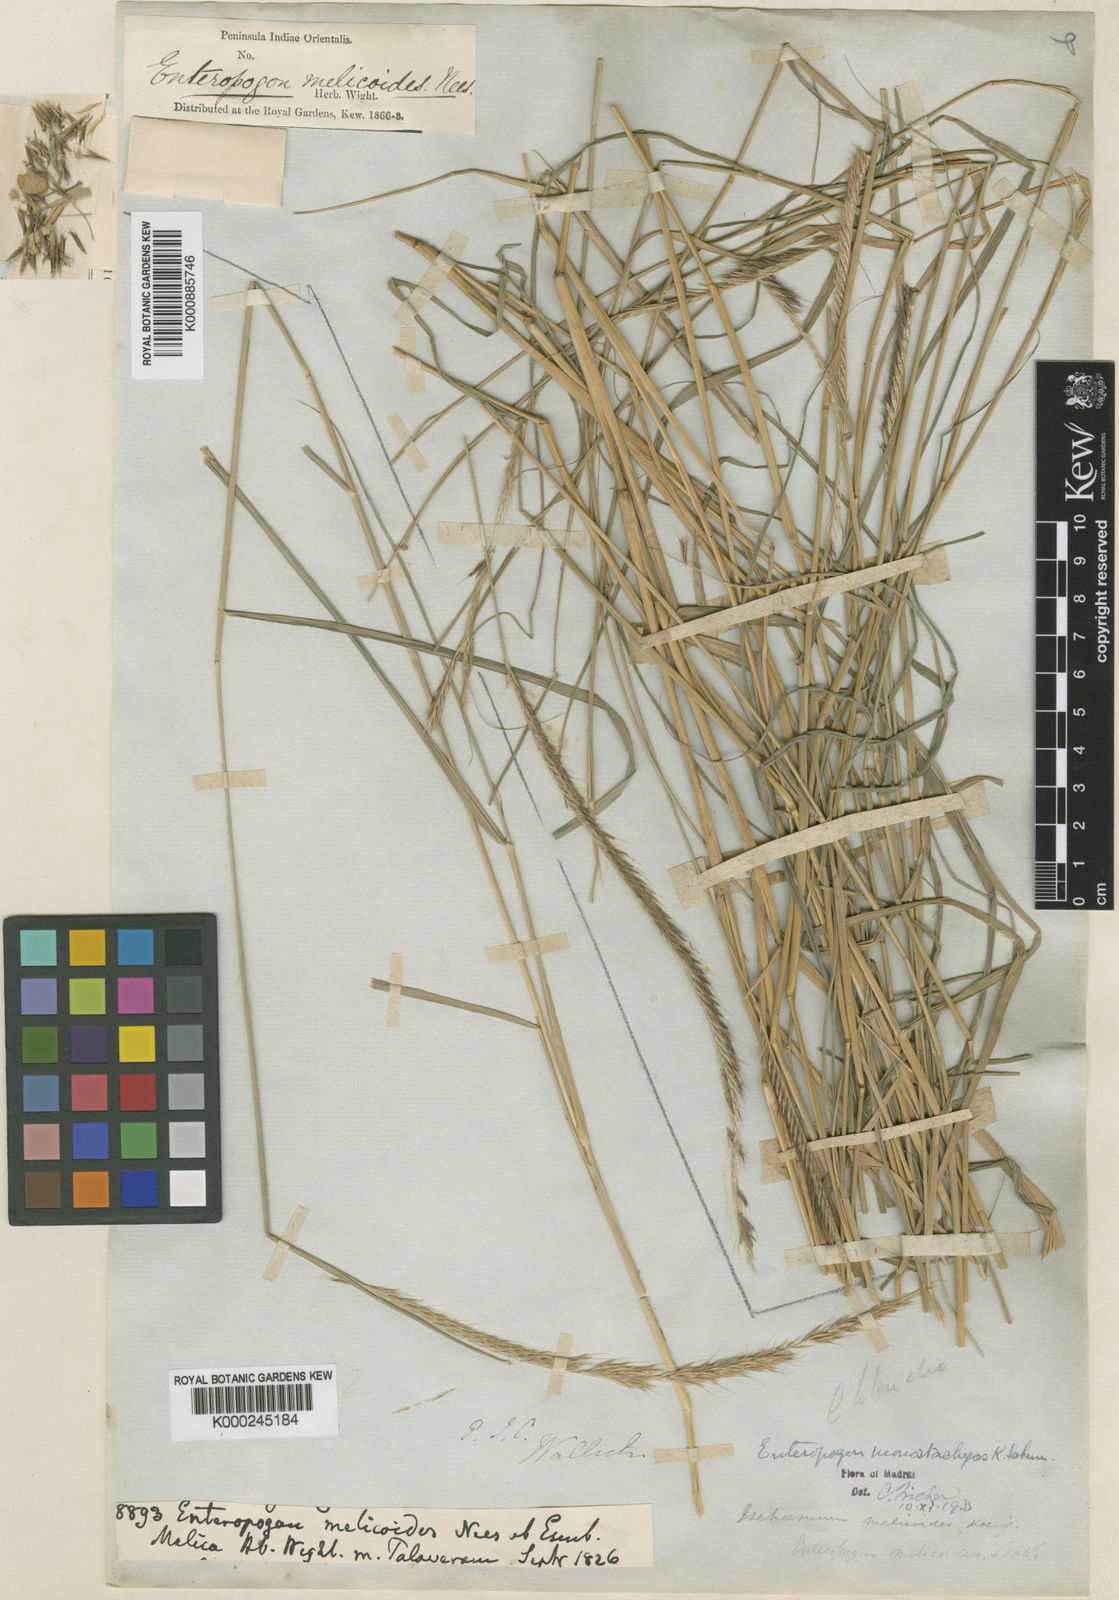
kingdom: Plantae
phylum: Tracheophyta
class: Liliopsida
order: Poales
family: Poaceae
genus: Enteropogon
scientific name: Enteropogon
